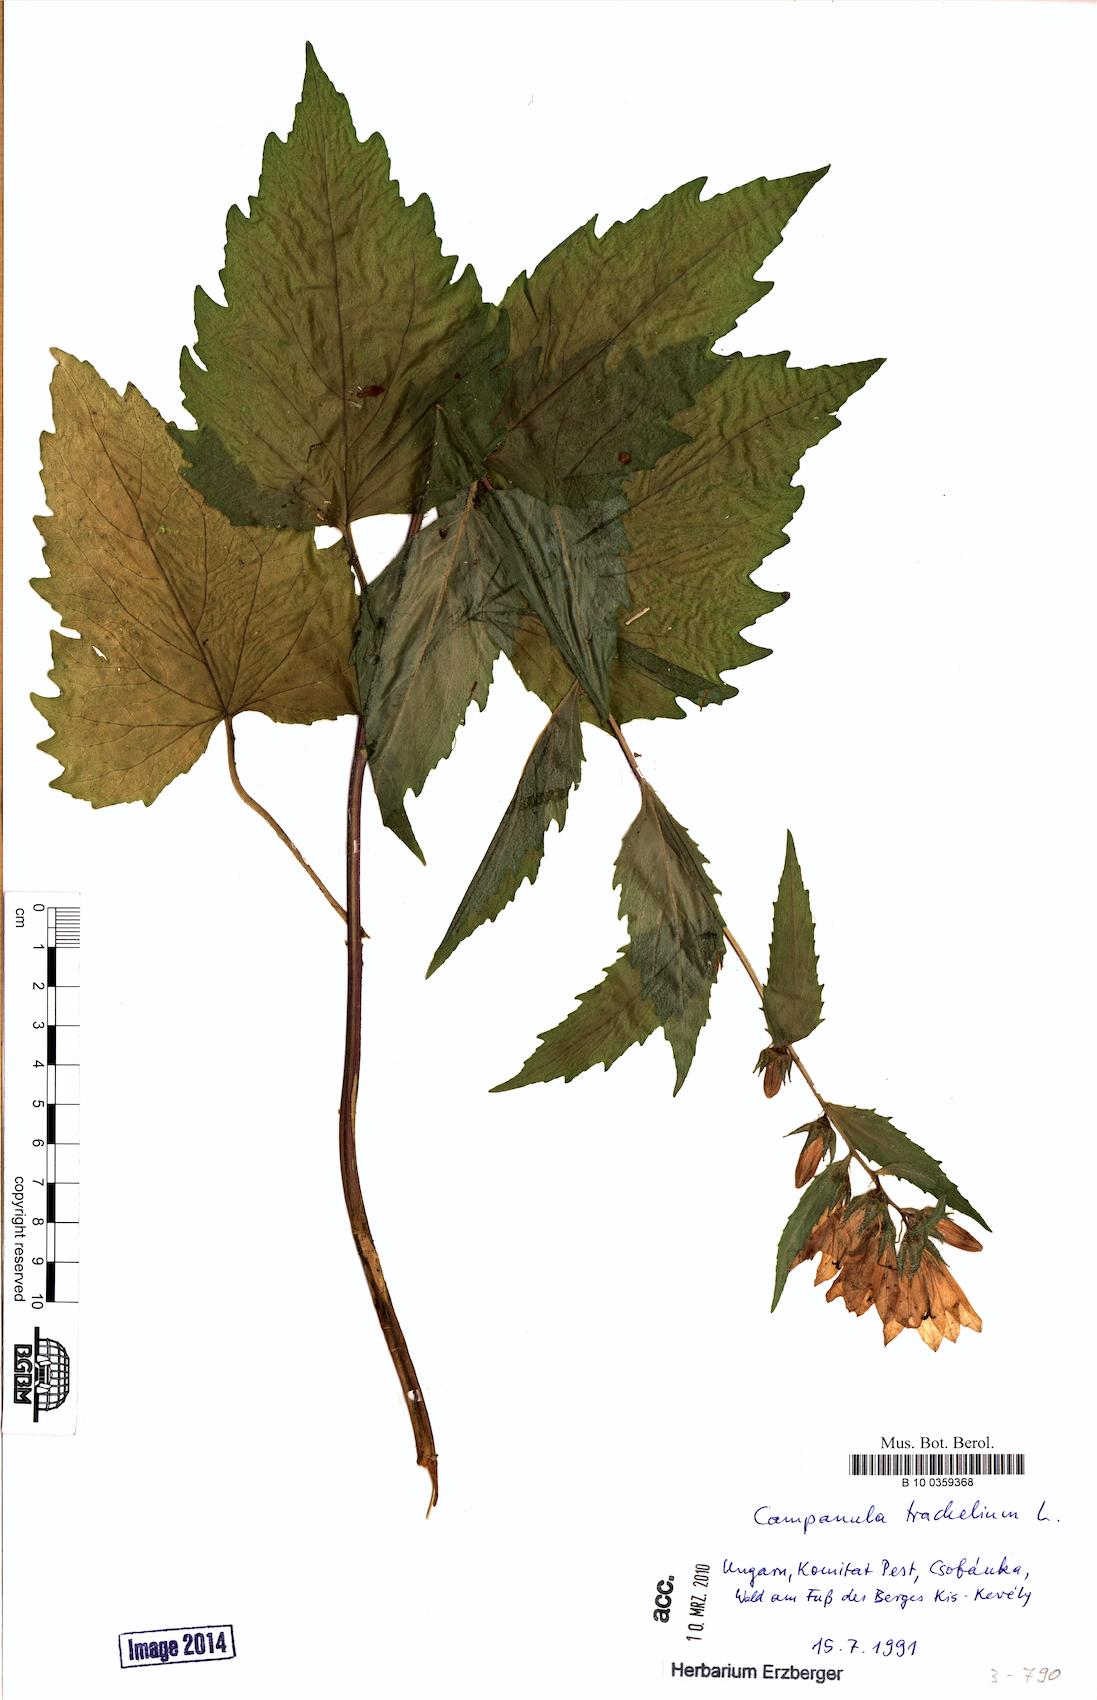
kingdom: Plantae
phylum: Tracheophyta
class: Magnoliopsida
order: Asterales
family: Campanulaceae
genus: Campanula
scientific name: Campanula trachelium
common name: Nettle-leaved bellflower
